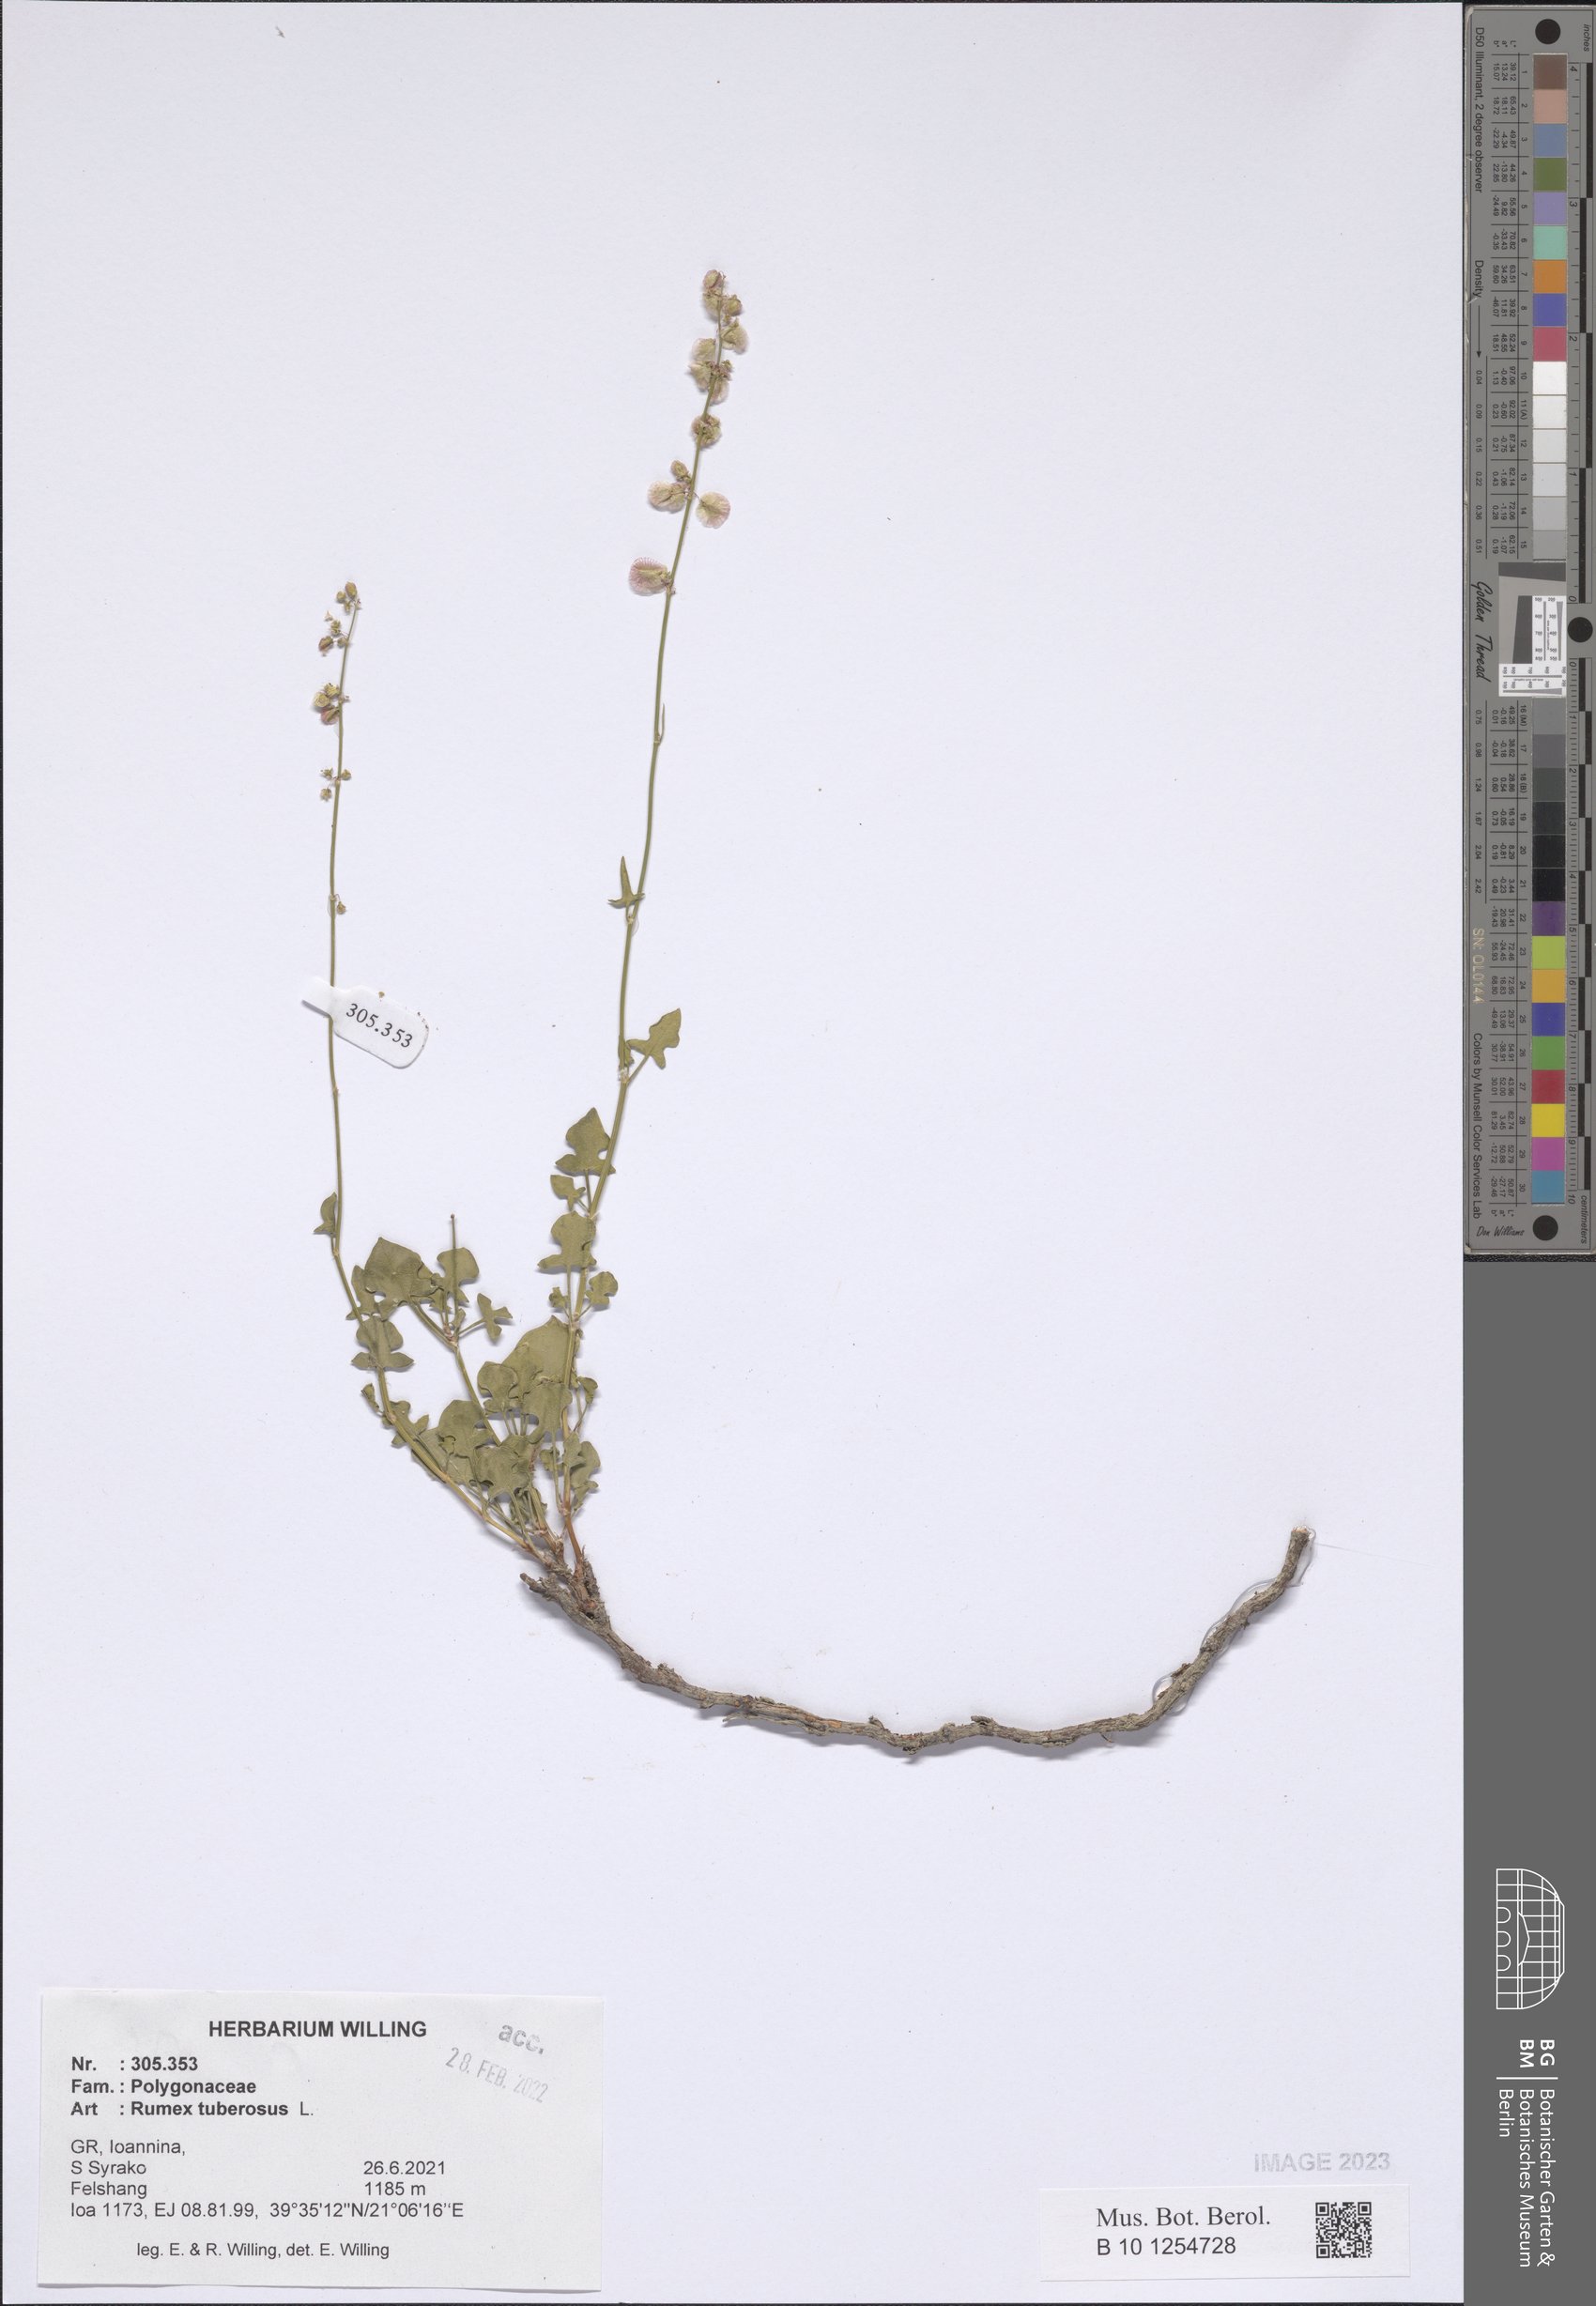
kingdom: Plantae
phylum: Tracheophyta
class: Magnoliopsida
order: Caryophyllales
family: Polygonaceae
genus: Rumex
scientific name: Rumex tuberosus
